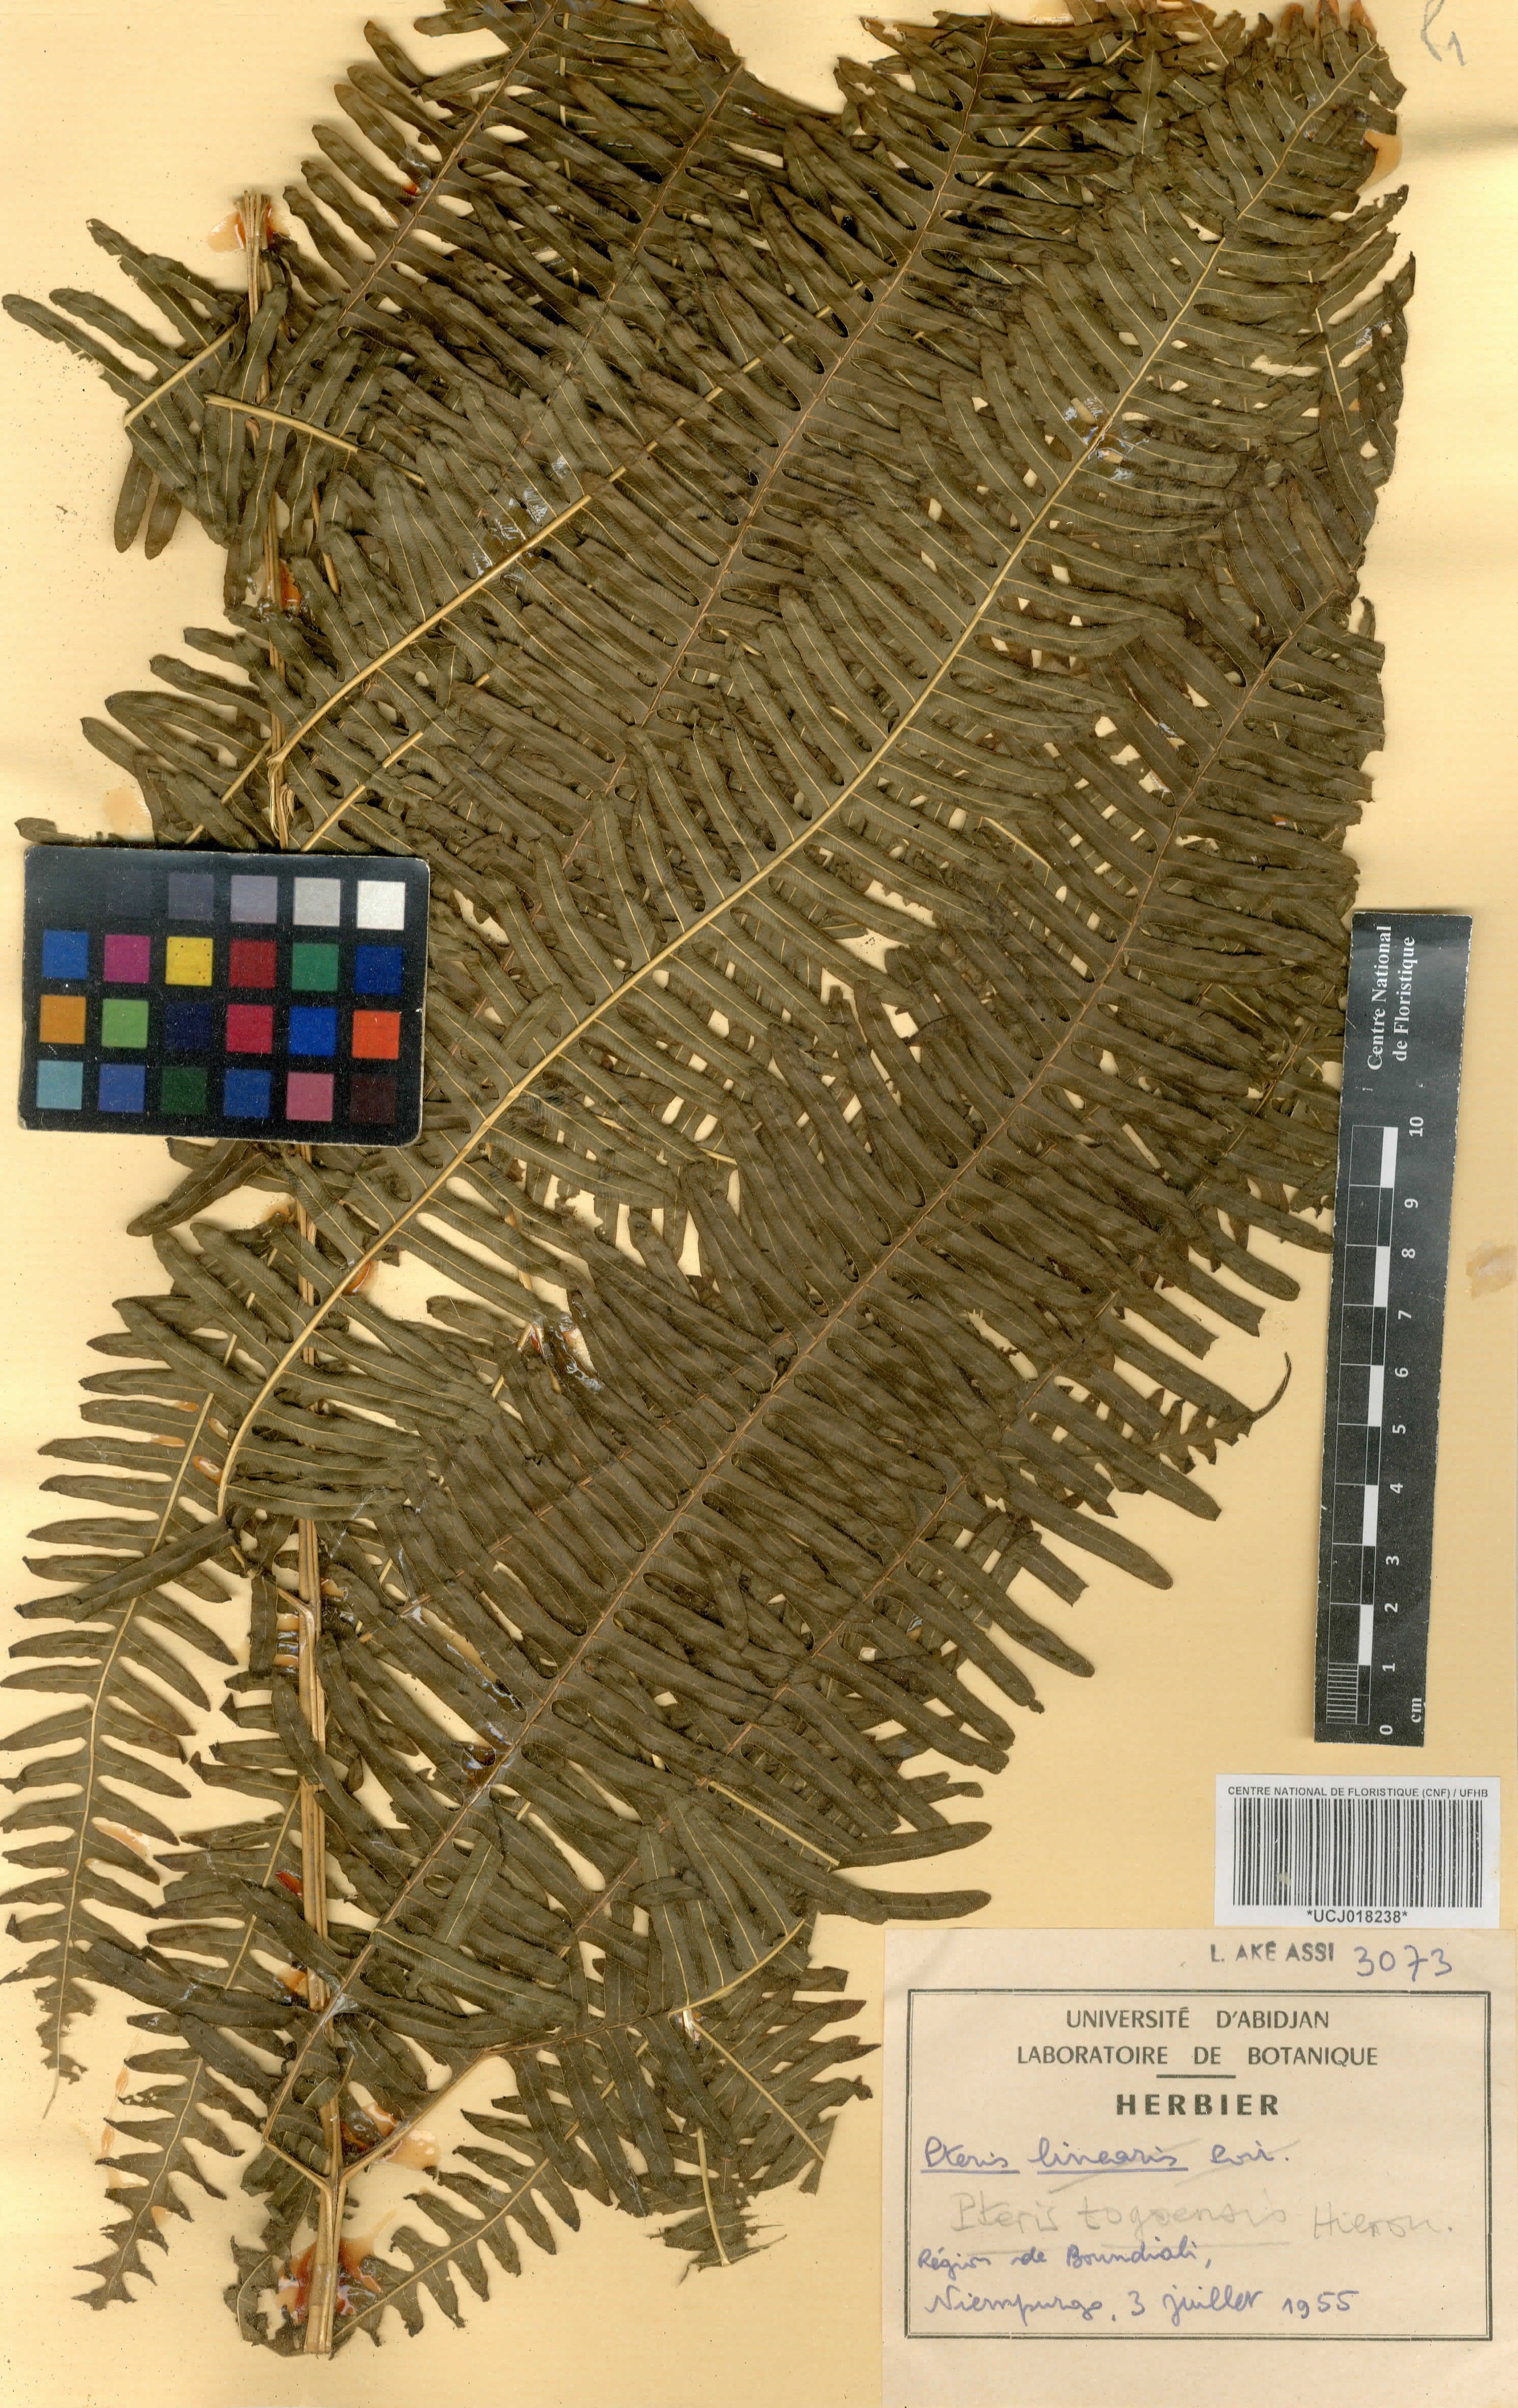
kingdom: Plantae
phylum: Tracheophyta
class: Polypodiopsida
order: Polypodiales
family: Pteridaceae
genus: Pteris
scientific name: Pteris togoensis
